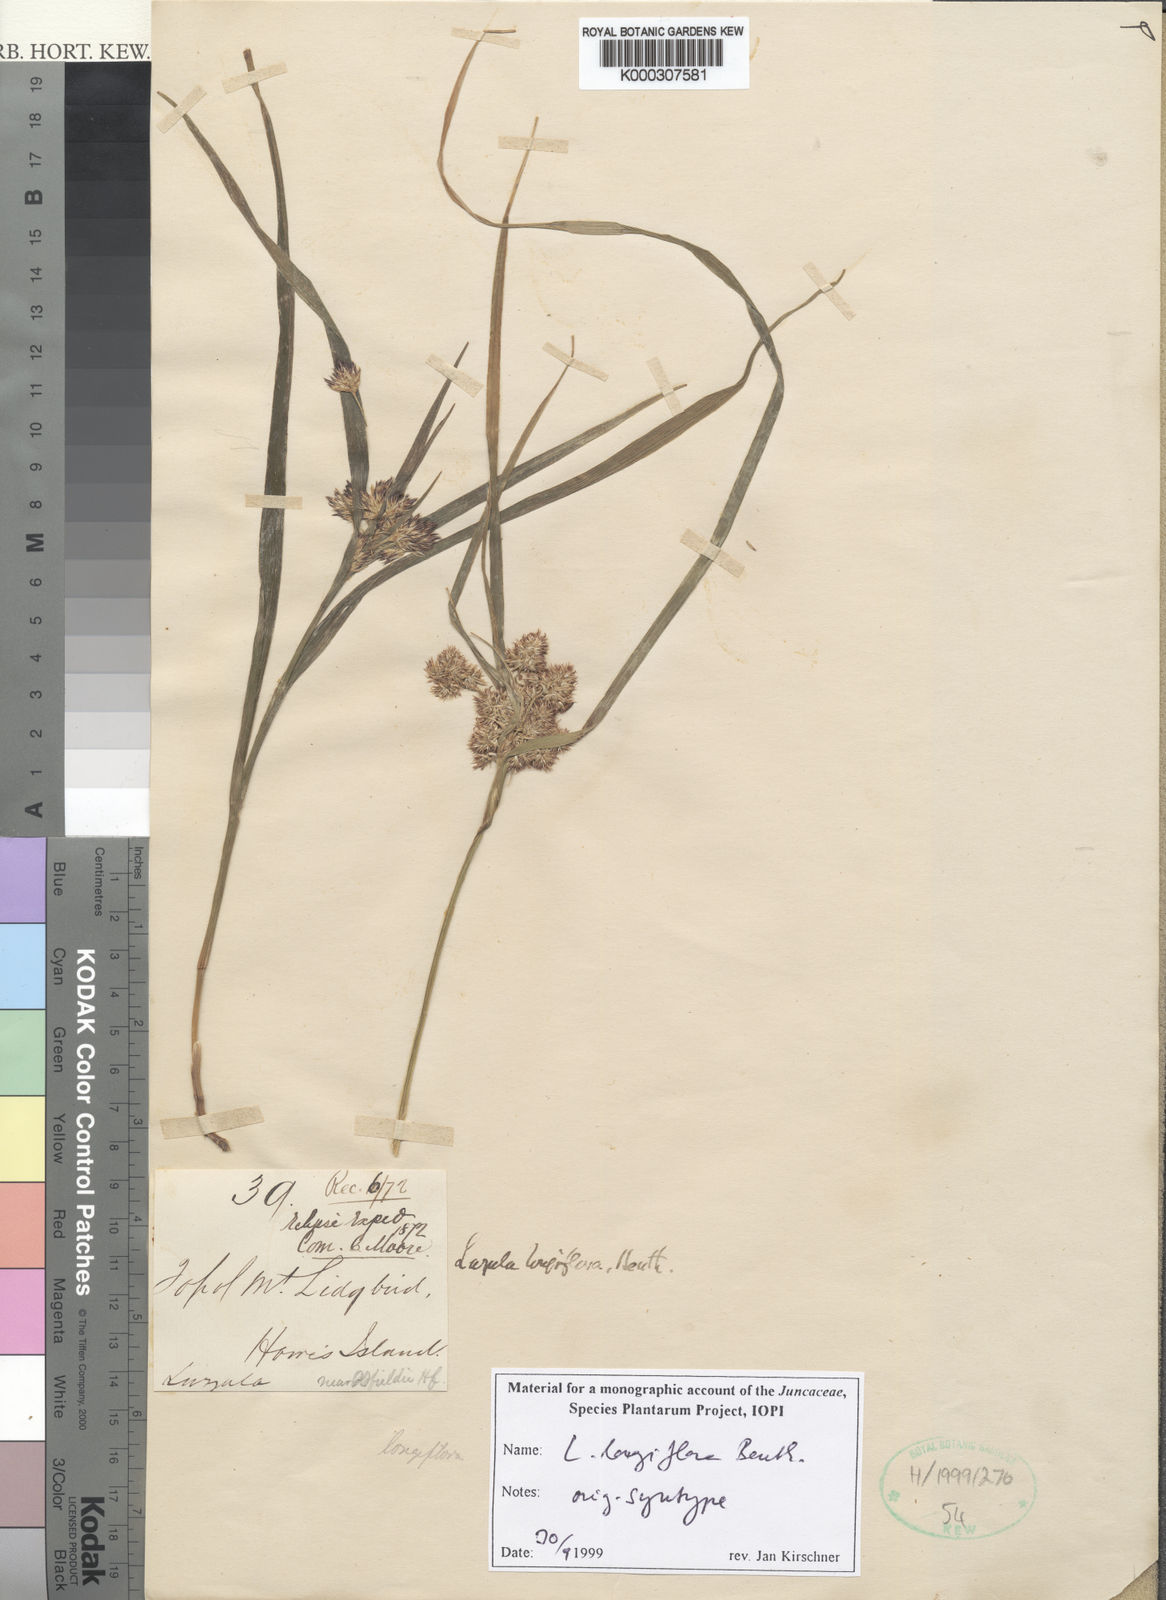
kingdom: Plantae
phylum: Tracheophyta
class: Liliopsida
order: Poales
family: Juncaceae
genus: Luzula
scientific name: Luzula longiflora
